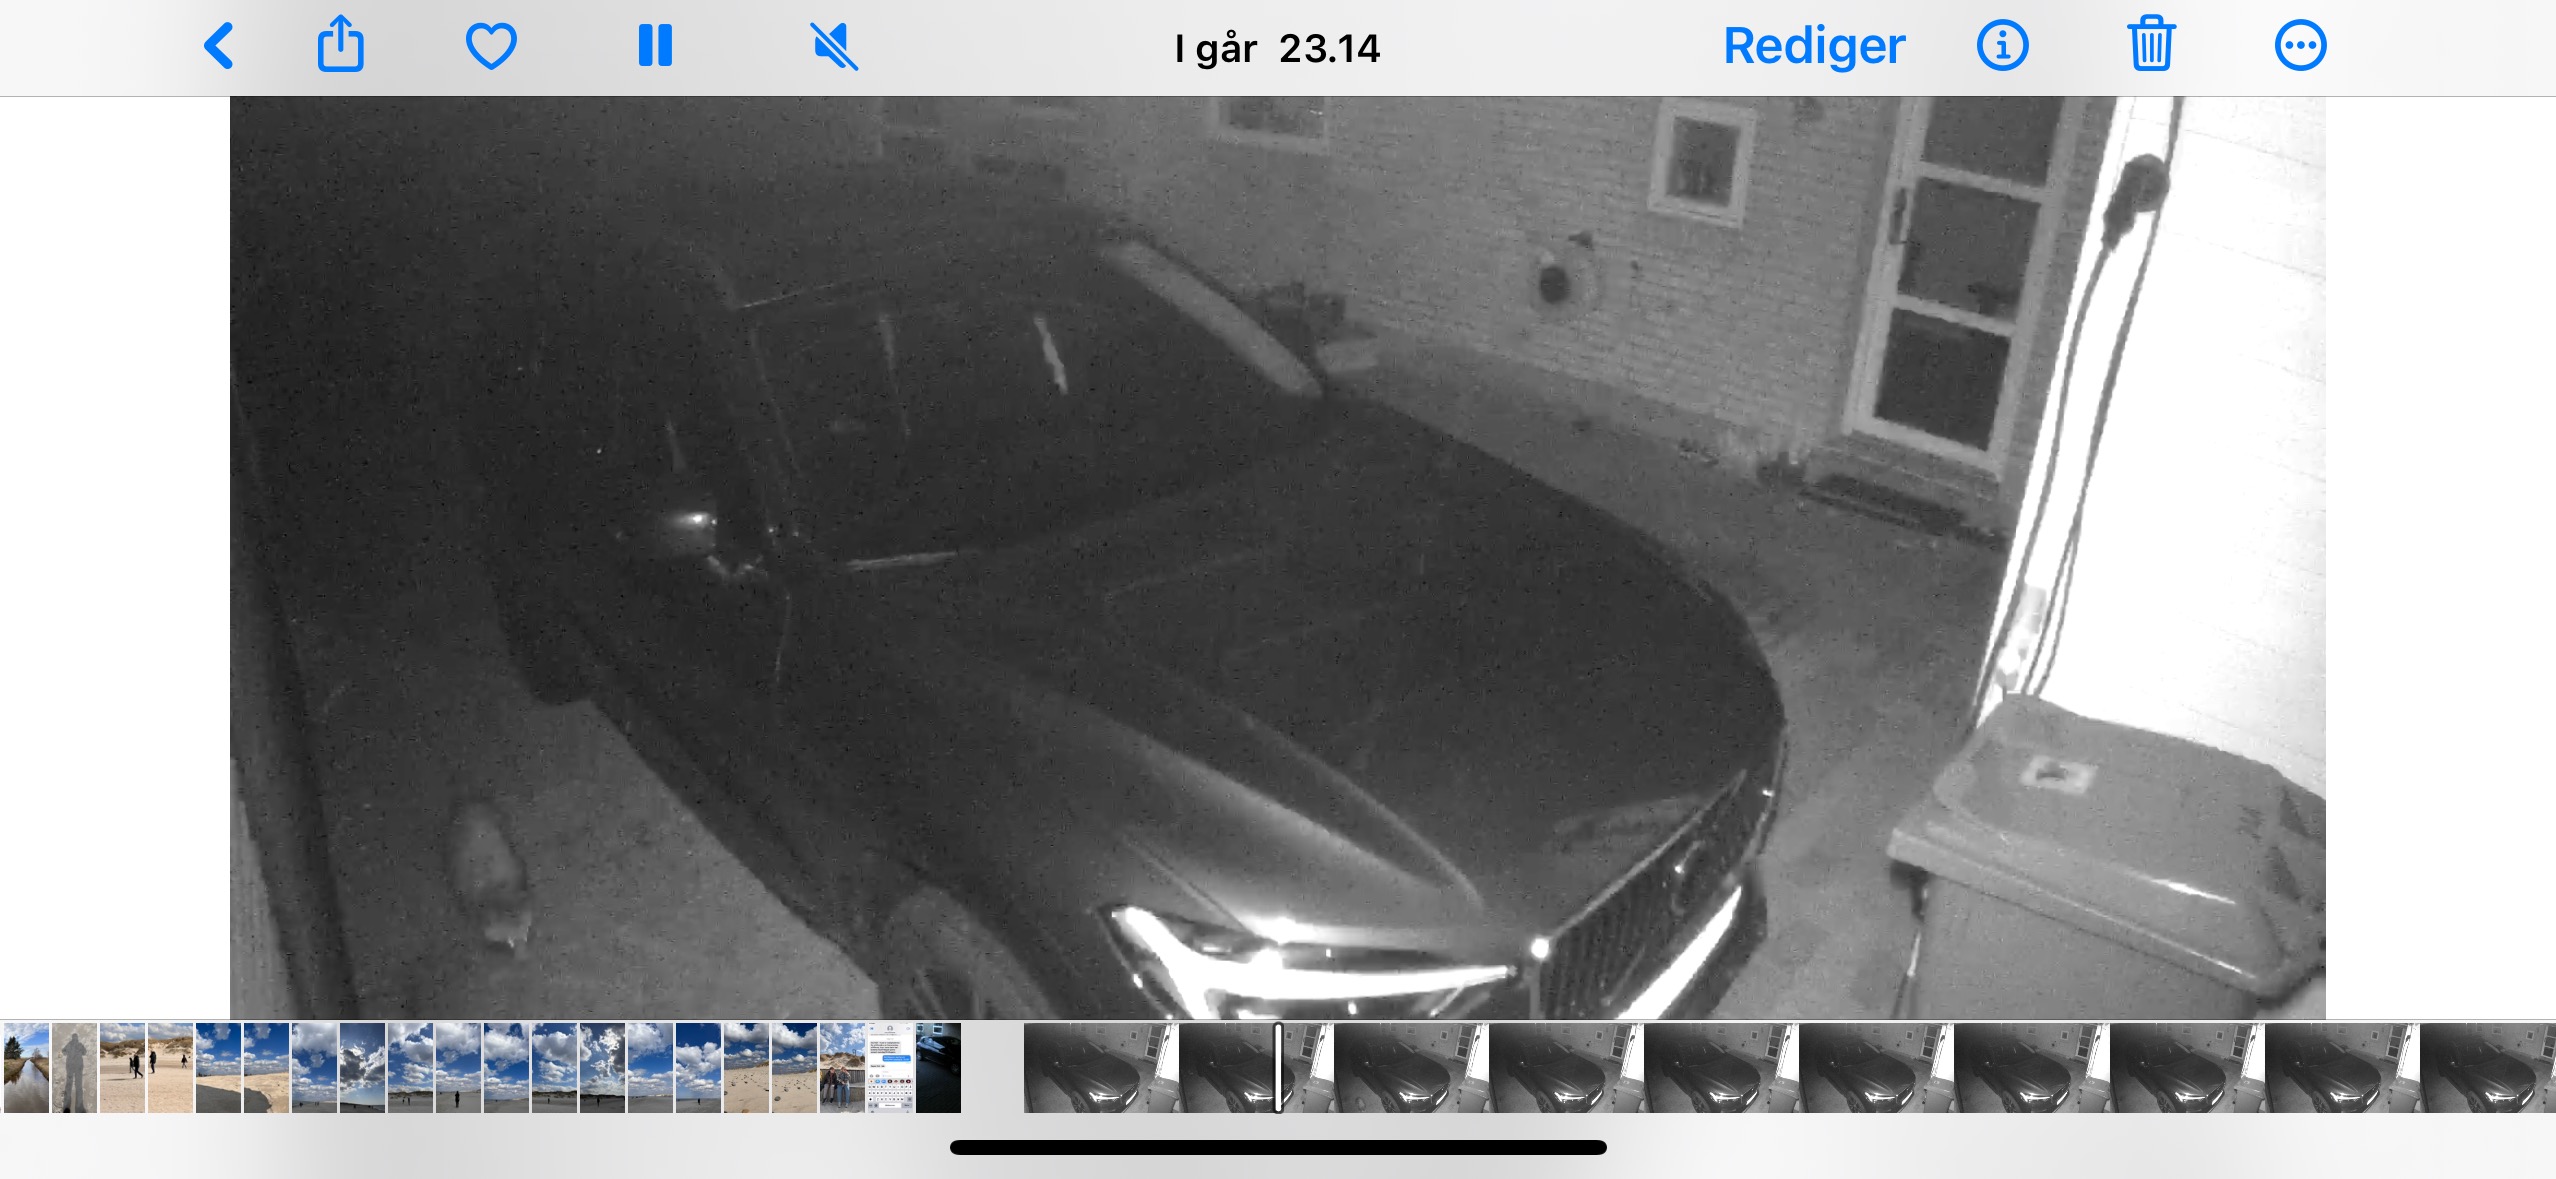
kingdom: Animalia
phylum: Chordata
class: Mammalia
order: Carnivora
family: Canidae
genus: Nyctereutes
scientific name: Nyctereutes procyonoides
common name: Mårhund
